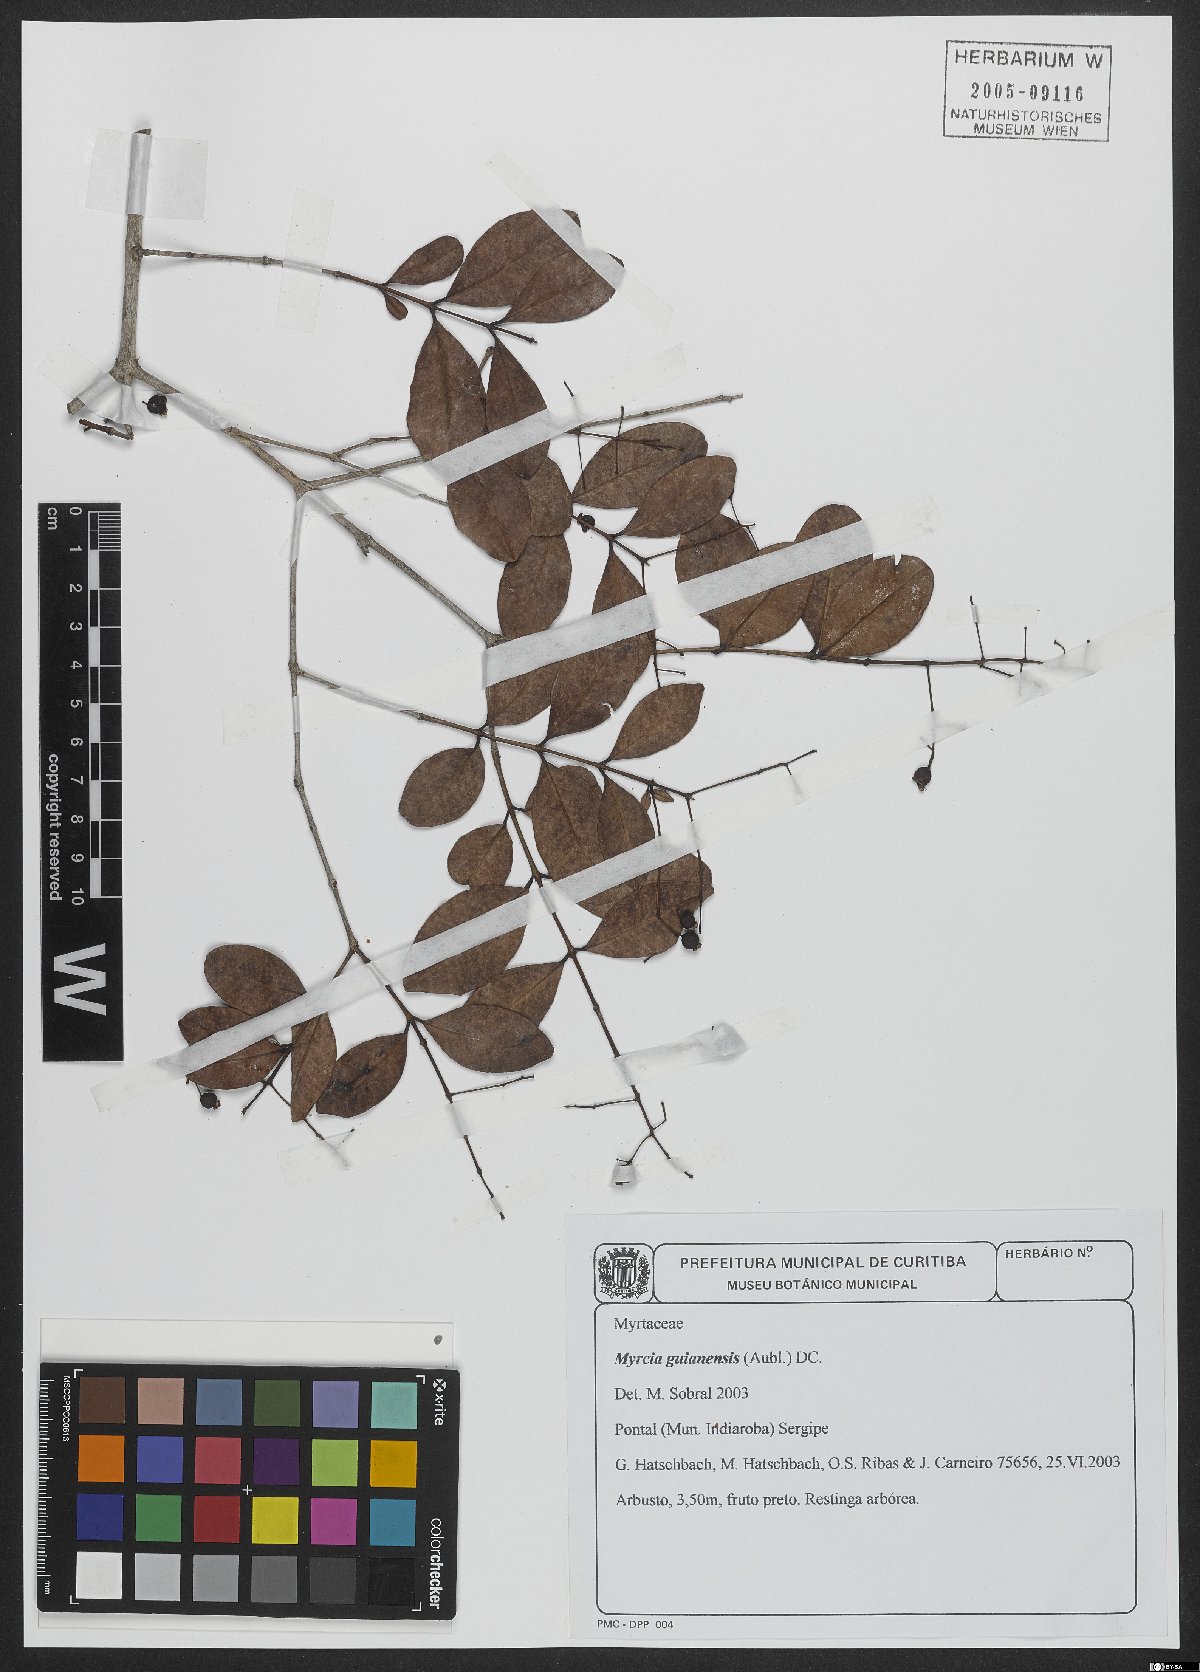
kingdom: Plantae
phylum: Tracheophyta
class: Magnoliopsida
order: Myrtales
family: Myrtaceae
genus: Myrcia
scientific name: Myrcia guianensis
